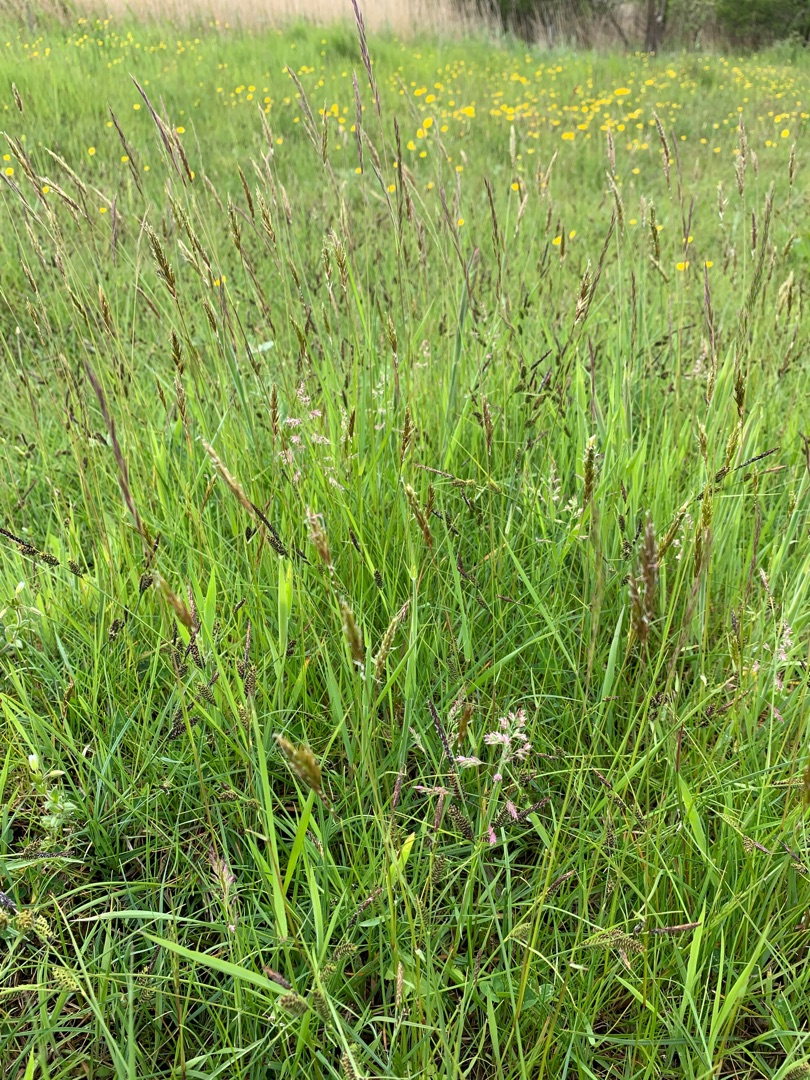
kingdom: Plantae
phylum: Tracheophyta
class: Liliopsida
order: Poales
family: Poaceae
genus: Anthoxanthum
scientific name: Anthoxanthum odoratum
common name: Vellugtende gulaks
